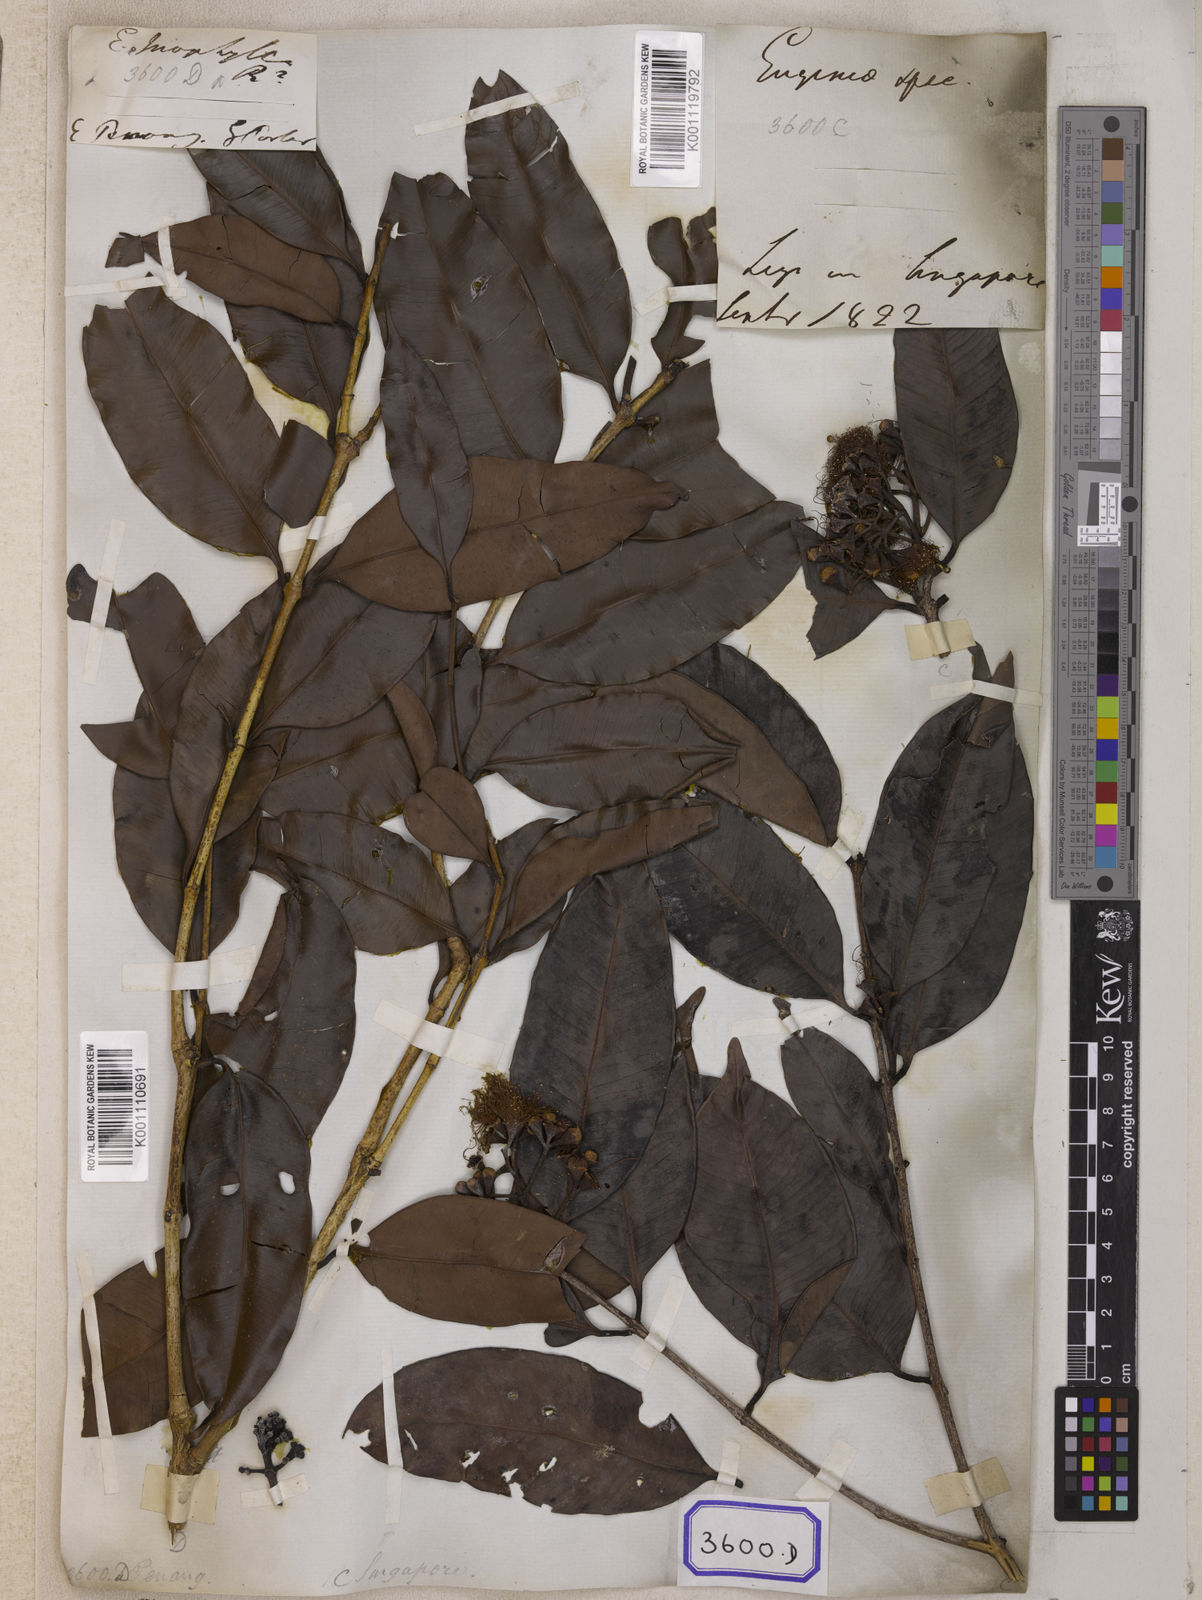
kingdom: Plantae
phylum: Tracheophyta
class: Magnoliopsida
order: Myrtales
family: Myrtaceae
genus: Syzygium
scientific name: Syzygium inophyllum
